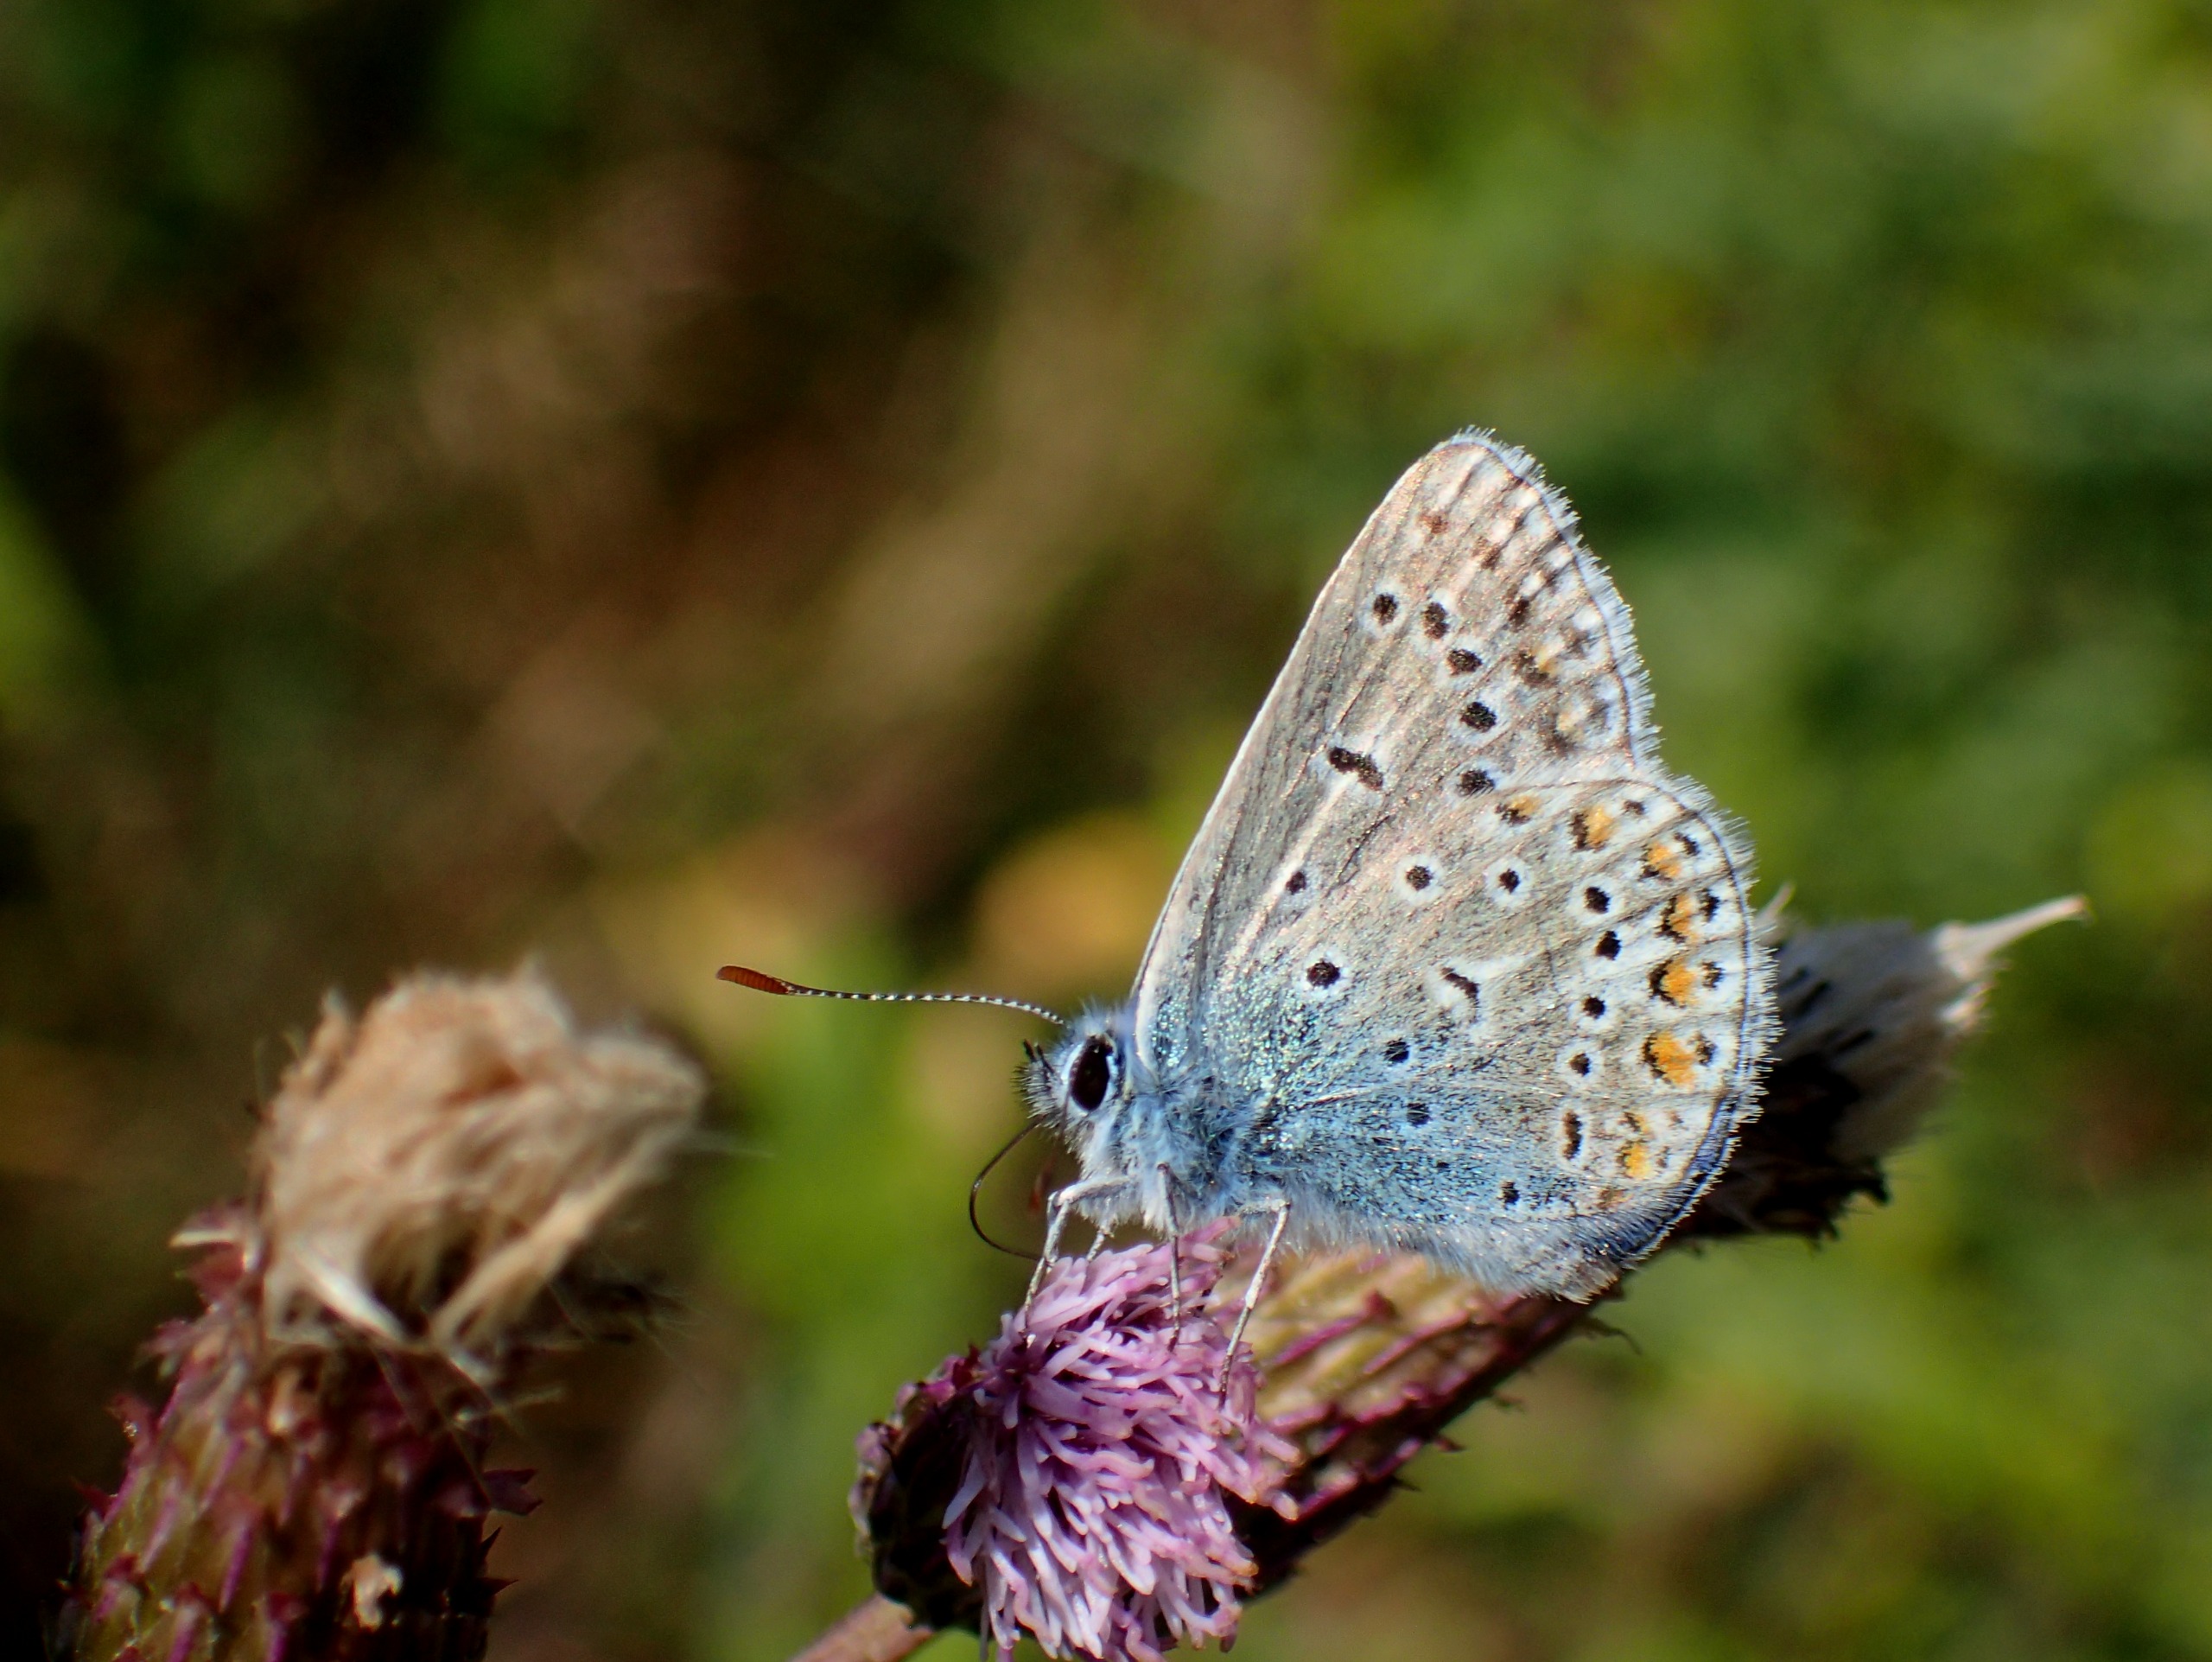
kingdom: Animalia
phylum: Arthropoda
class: Insecta
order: Lepidoptera
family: Lycaenidae
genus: Polyommatus
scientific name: Polyommatus icarus
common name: Almindelig blåfugl
